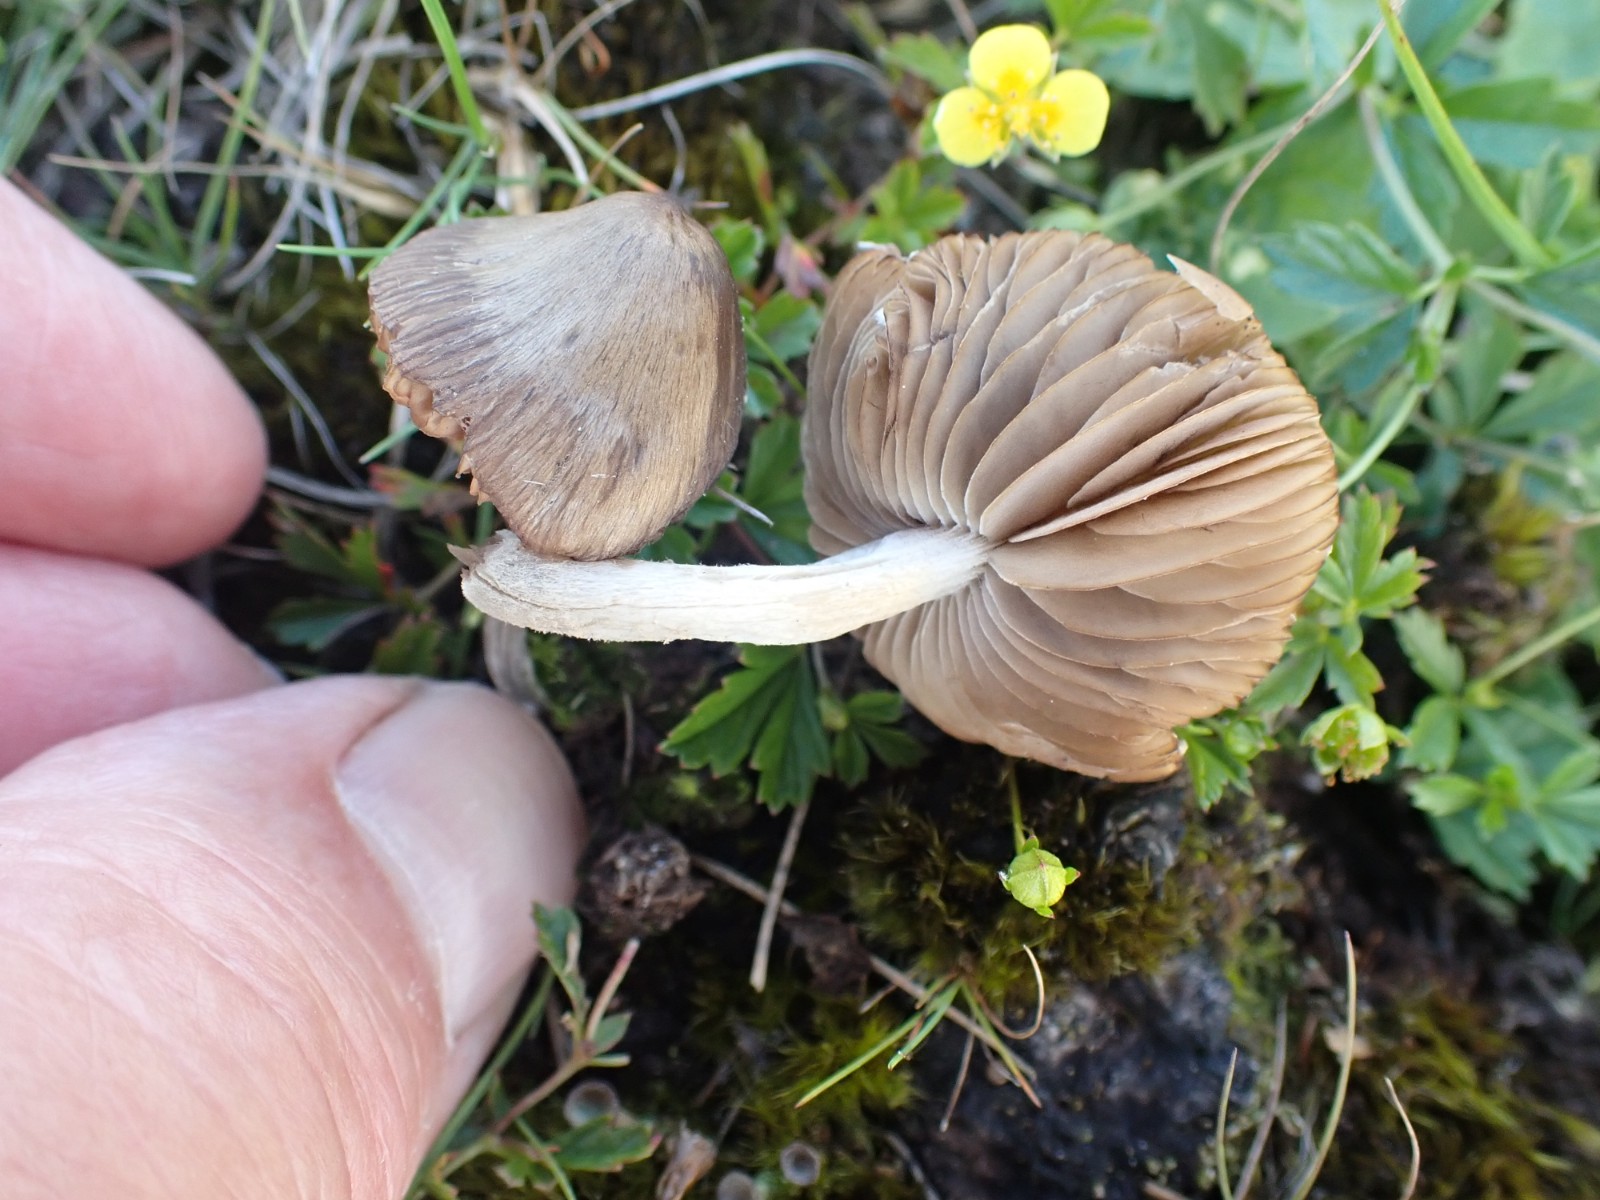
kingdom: Fungi
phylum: Basidiomycota
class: Agaricomycetes
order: Agaricales
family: Entolomataceae
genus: Entoloma
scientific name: Entoloma conferendum
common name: stjernesporet rødblad
